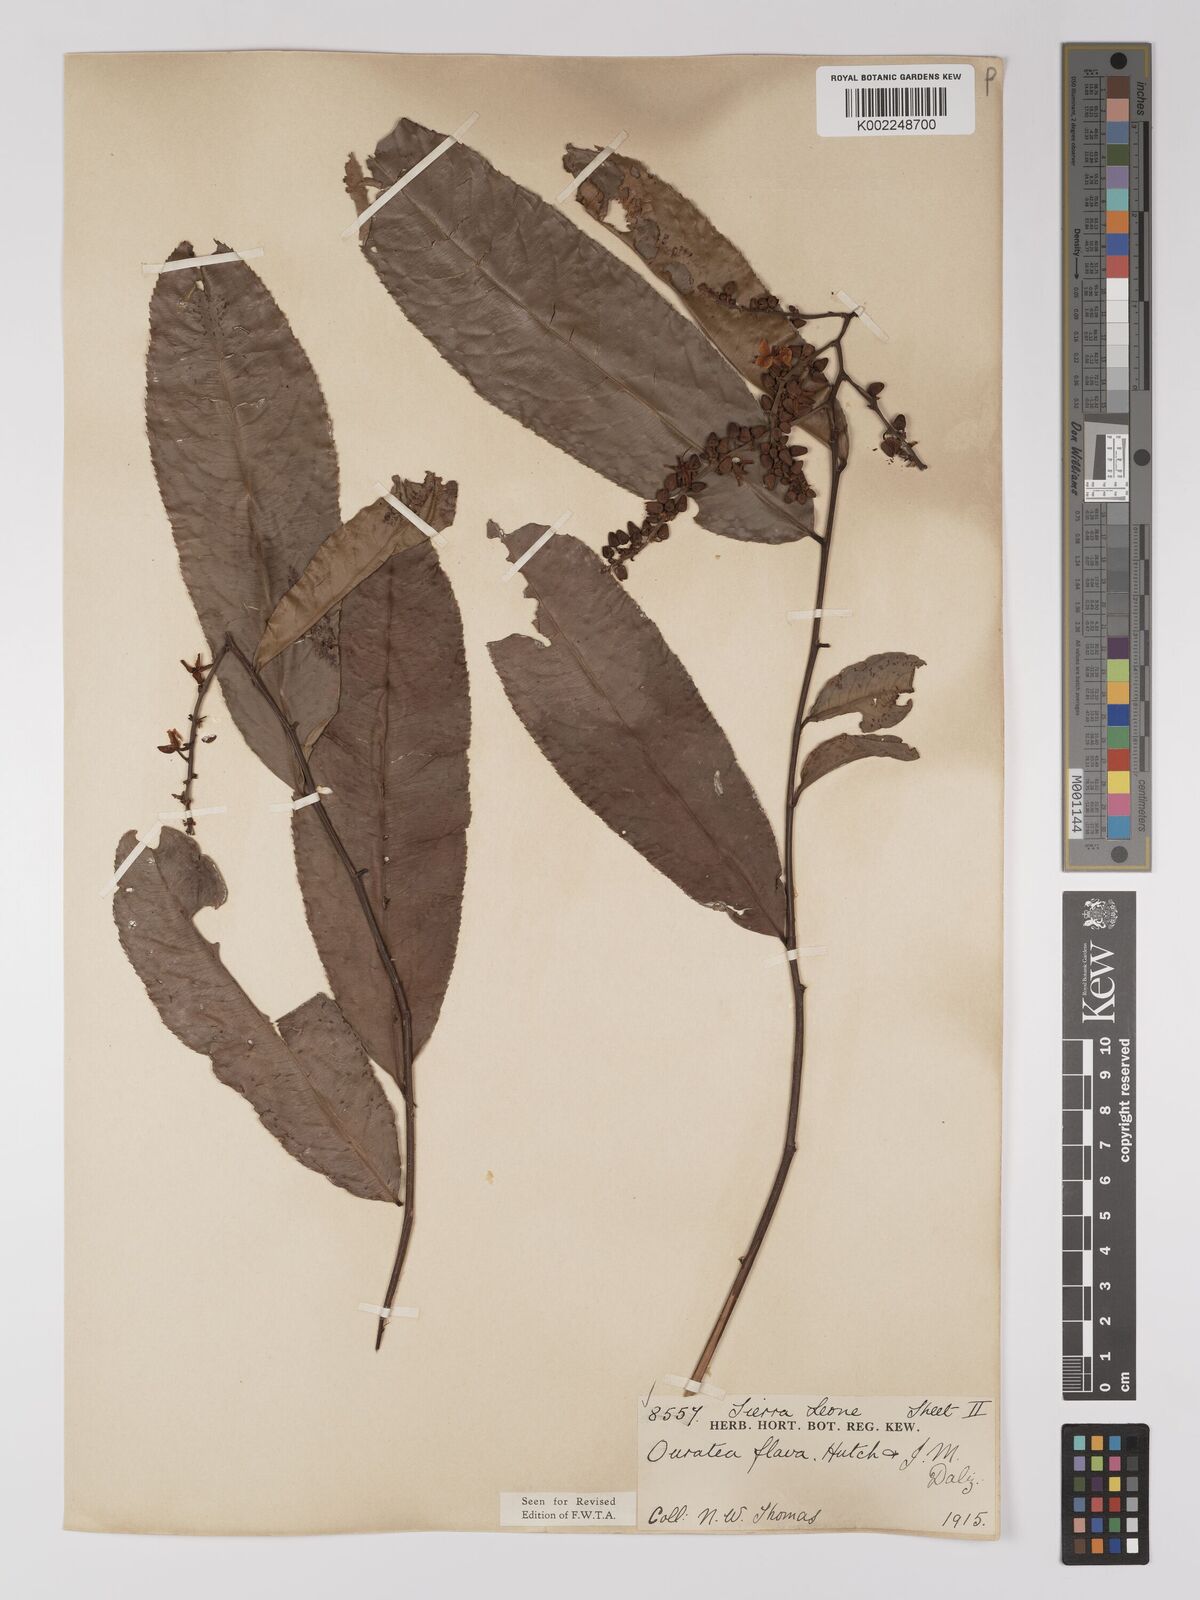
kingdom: Plantae
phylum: Tracheophyta
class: Magnoliopsida
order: Malpighiales
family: Ochnaceae
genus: Campylospermum
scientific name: Campylospermum flavum
